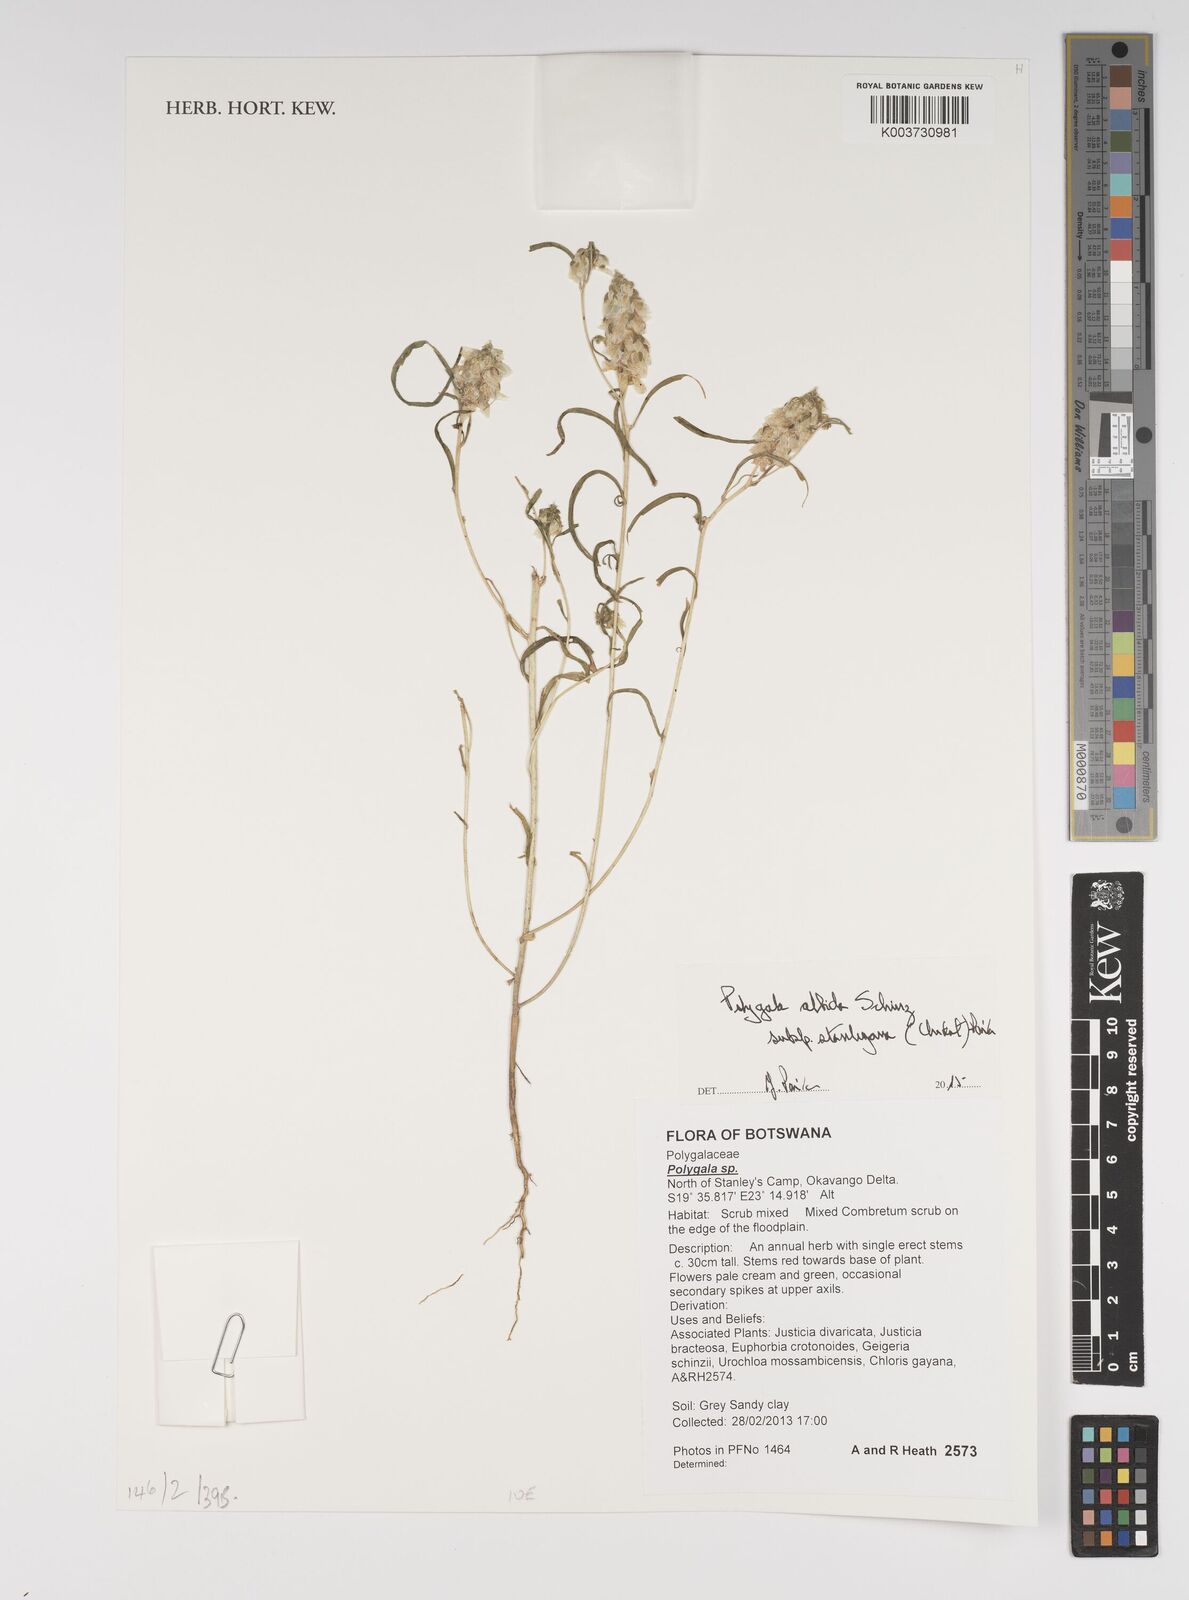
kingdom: Plantae
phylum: Tracheophyta
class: Magnoliopsida
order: Fabales
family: Polygalaceae
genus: Polygala
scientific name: Polygala albida
